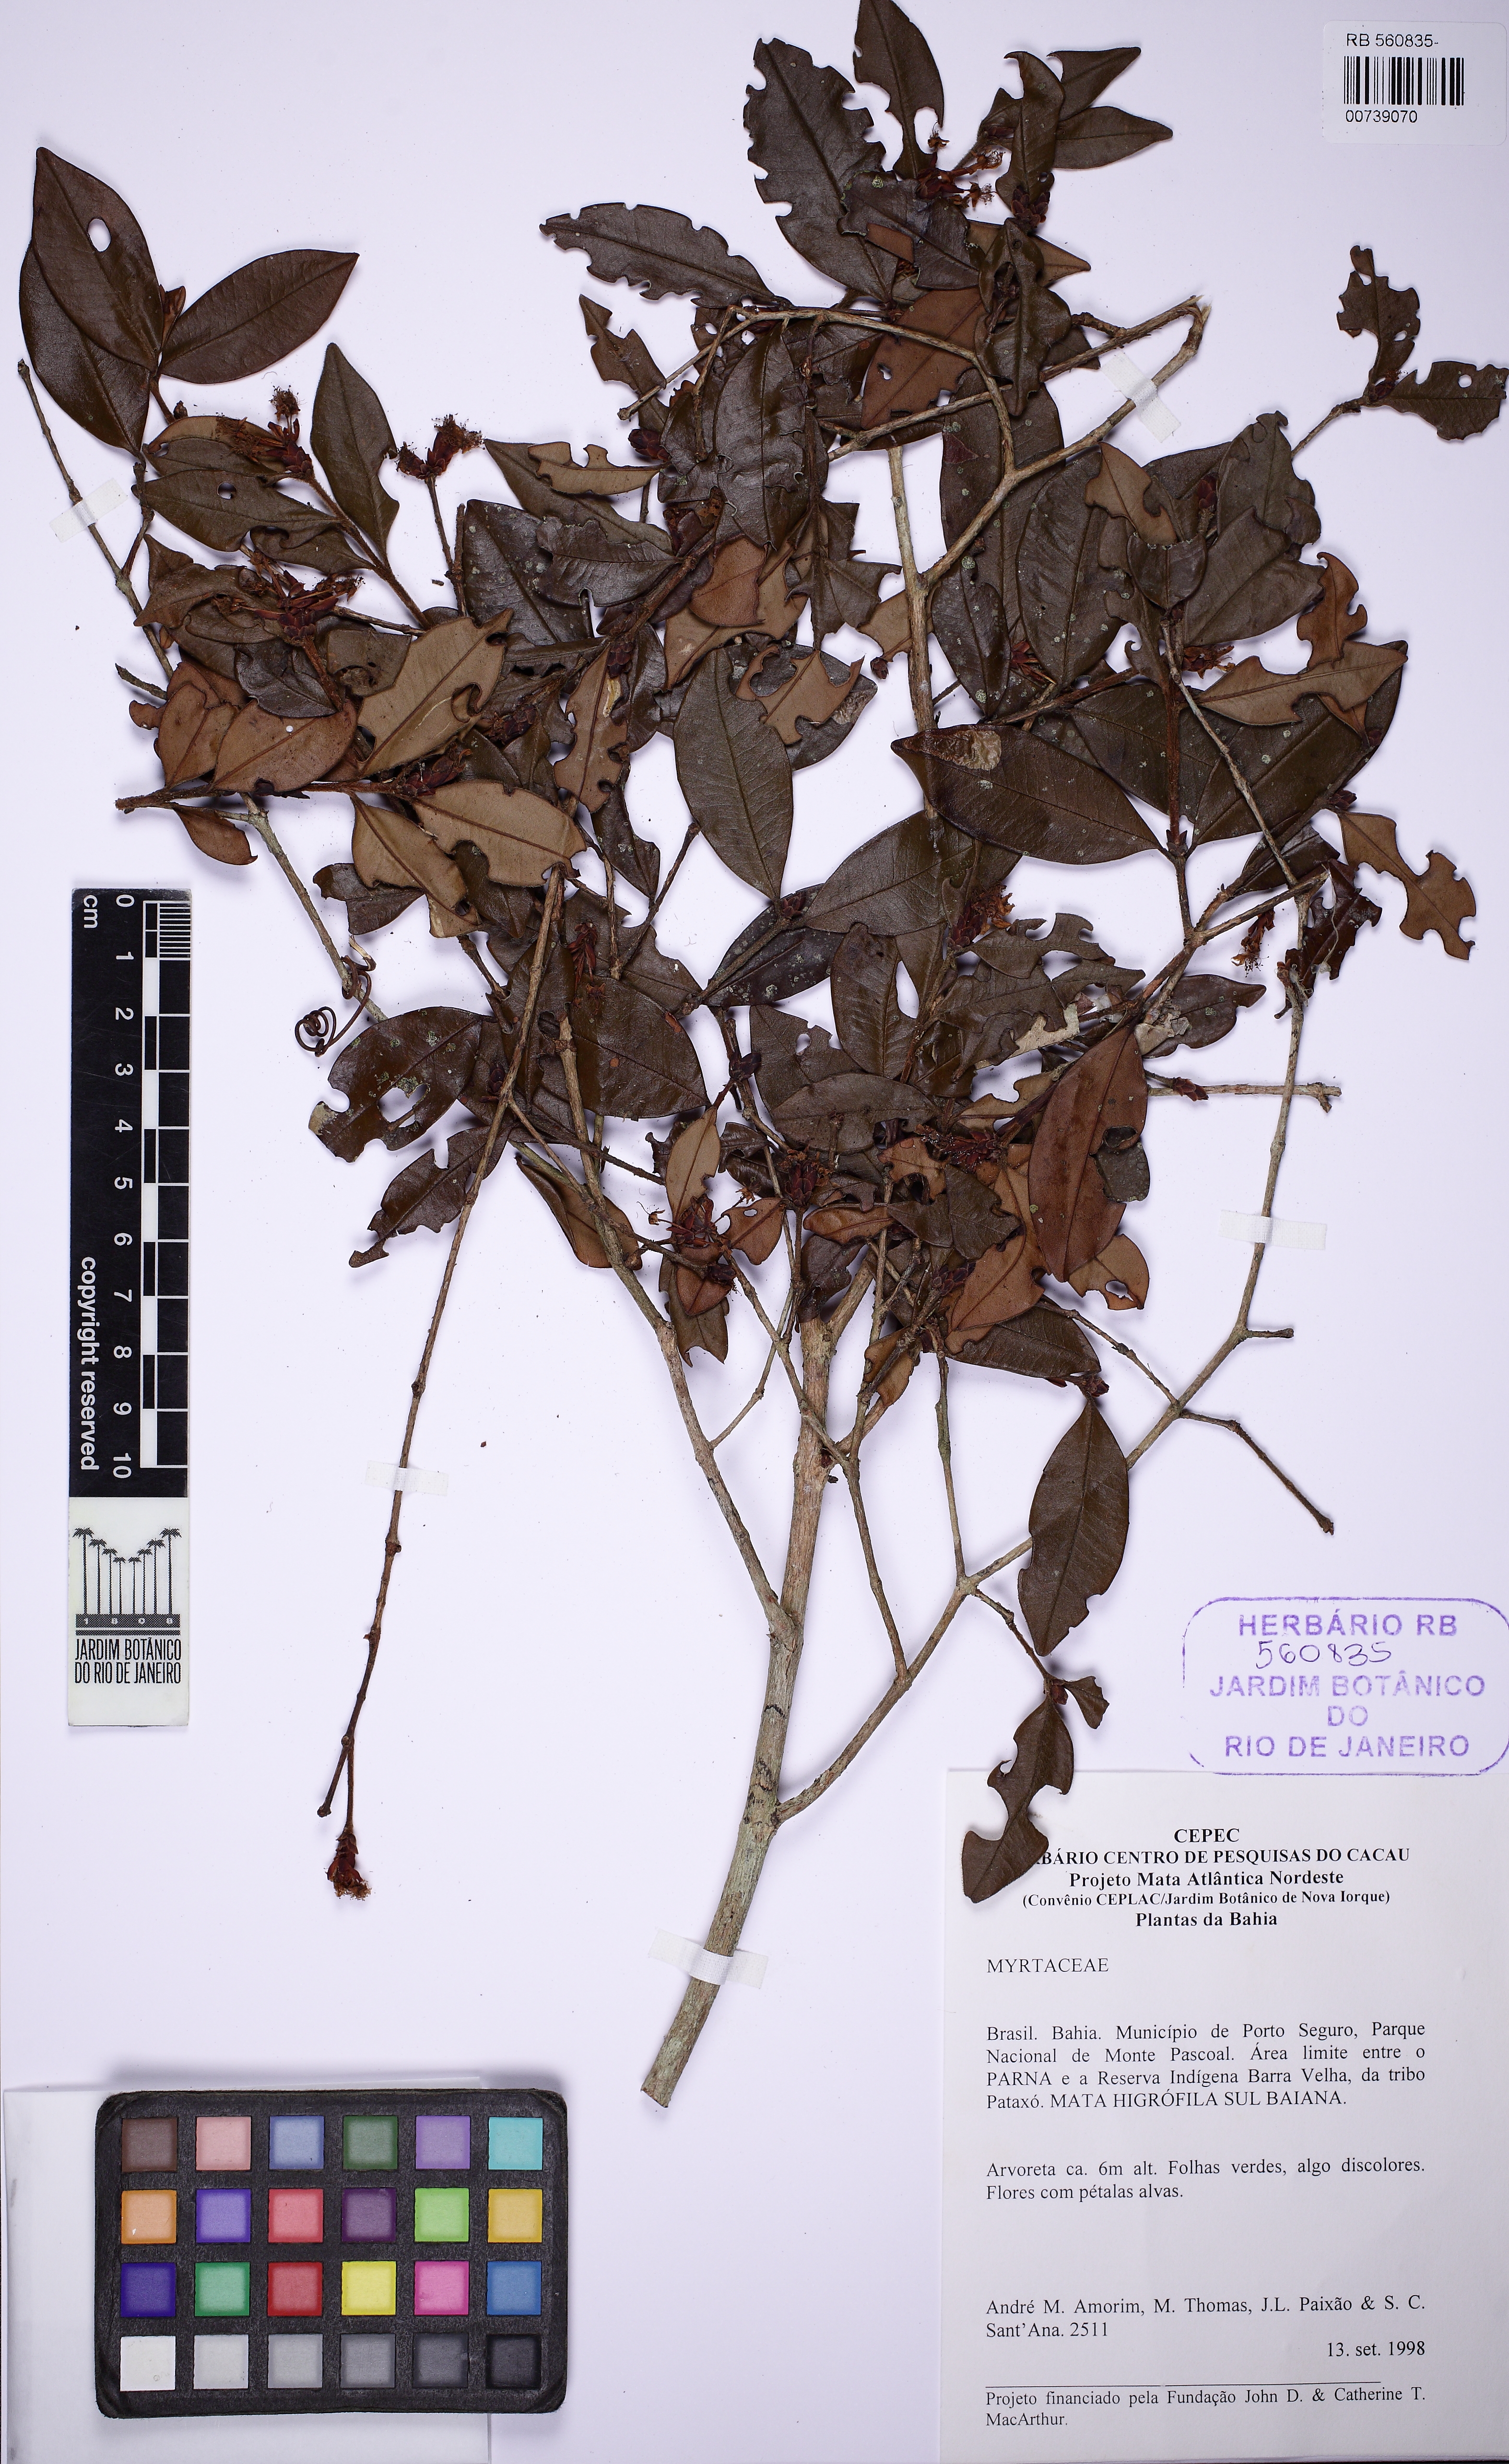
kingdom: Plantae
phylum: Tracheophyta
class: Magnoliopsida
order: Myrtales
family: Myrtaceae
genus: Eugenia
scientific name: Eugenia longipedunculata
